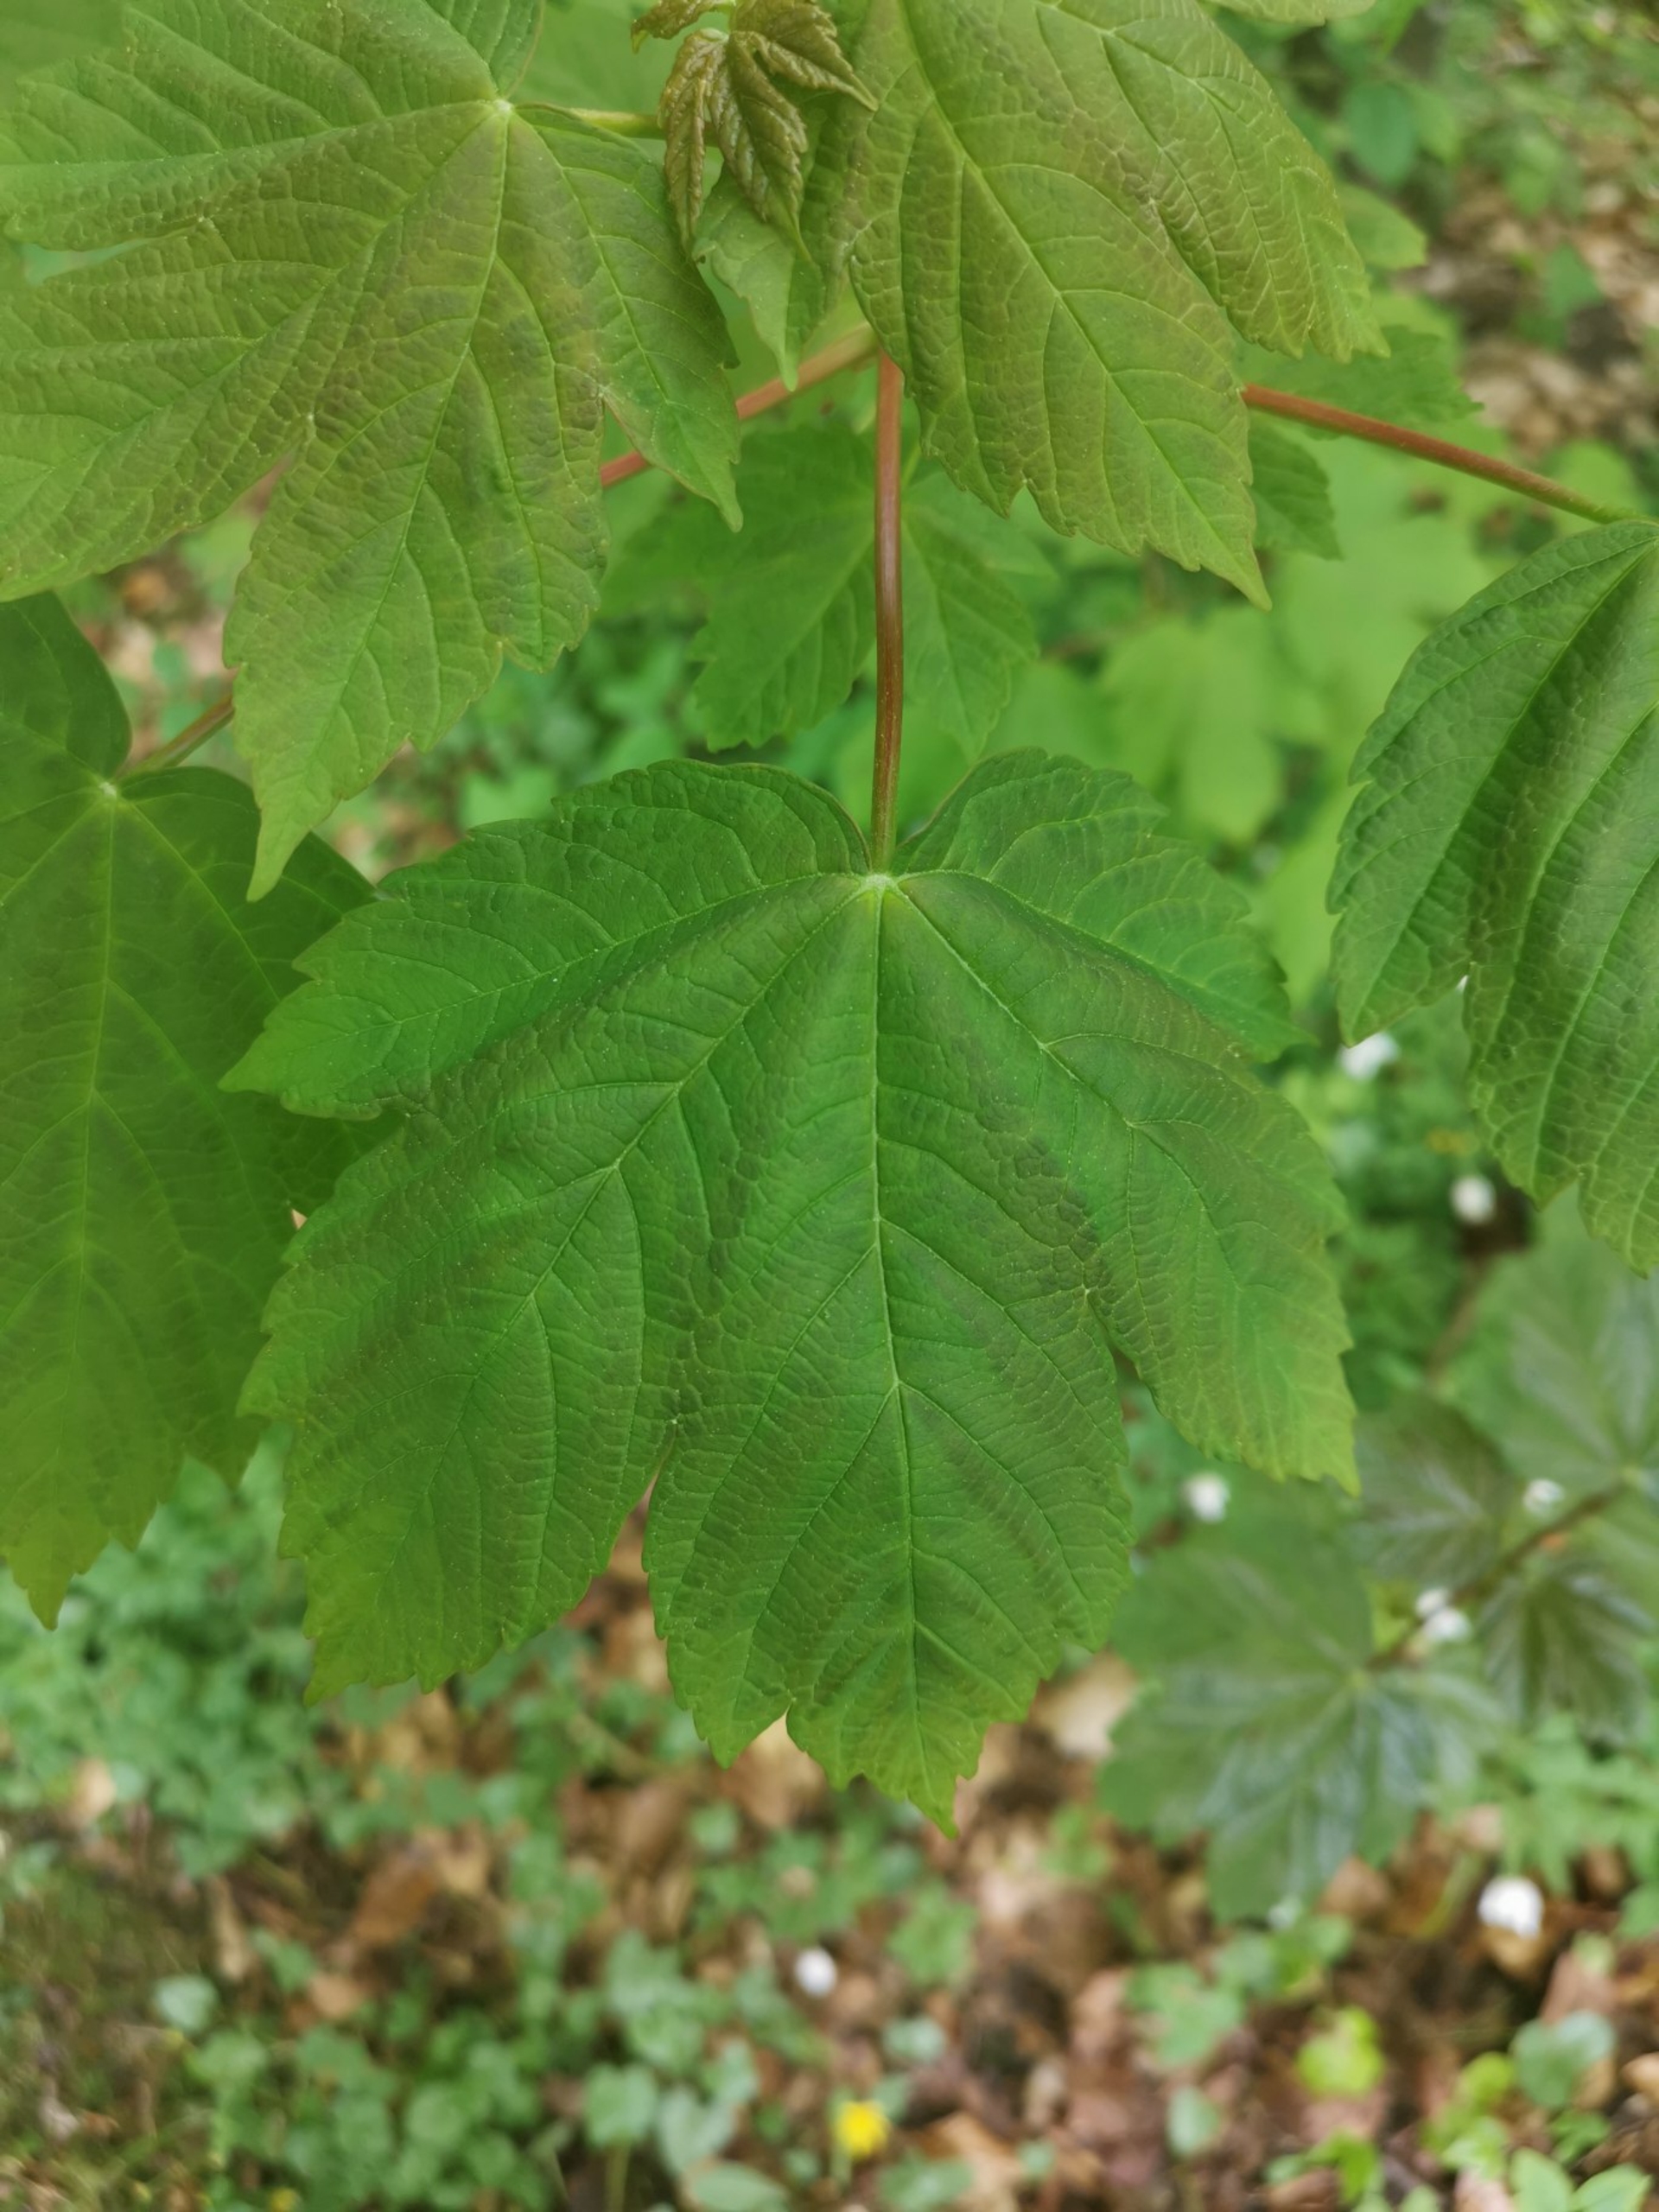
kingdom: Plantae
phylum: Tracheophyta
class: Magnoliopsida
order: Sapindales
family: Sapindaceae
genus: Acer
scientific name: Acer pseudoplatanus
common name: Ahorn
